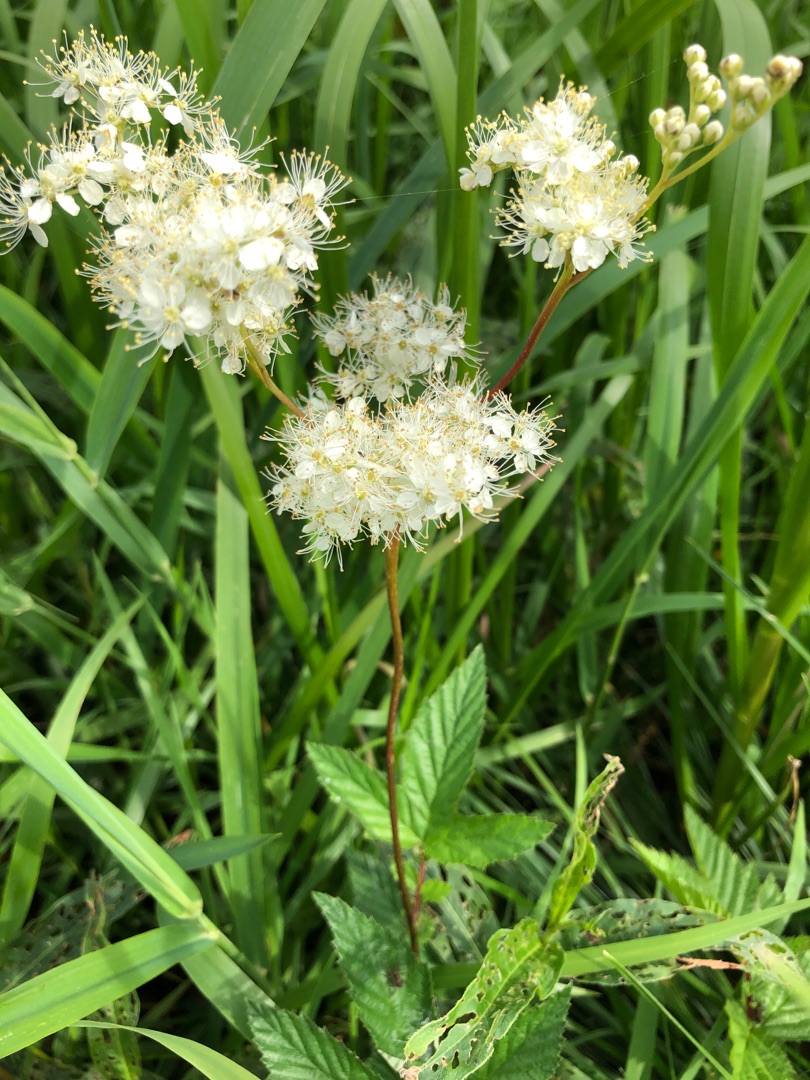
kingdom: Plantae
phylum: Tracheophyta
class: Magnoliopsida
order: Rosales
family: Rosaceae
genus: Filipendula
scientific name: Filipendula ulmaria
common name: Almindelig mjødurt
